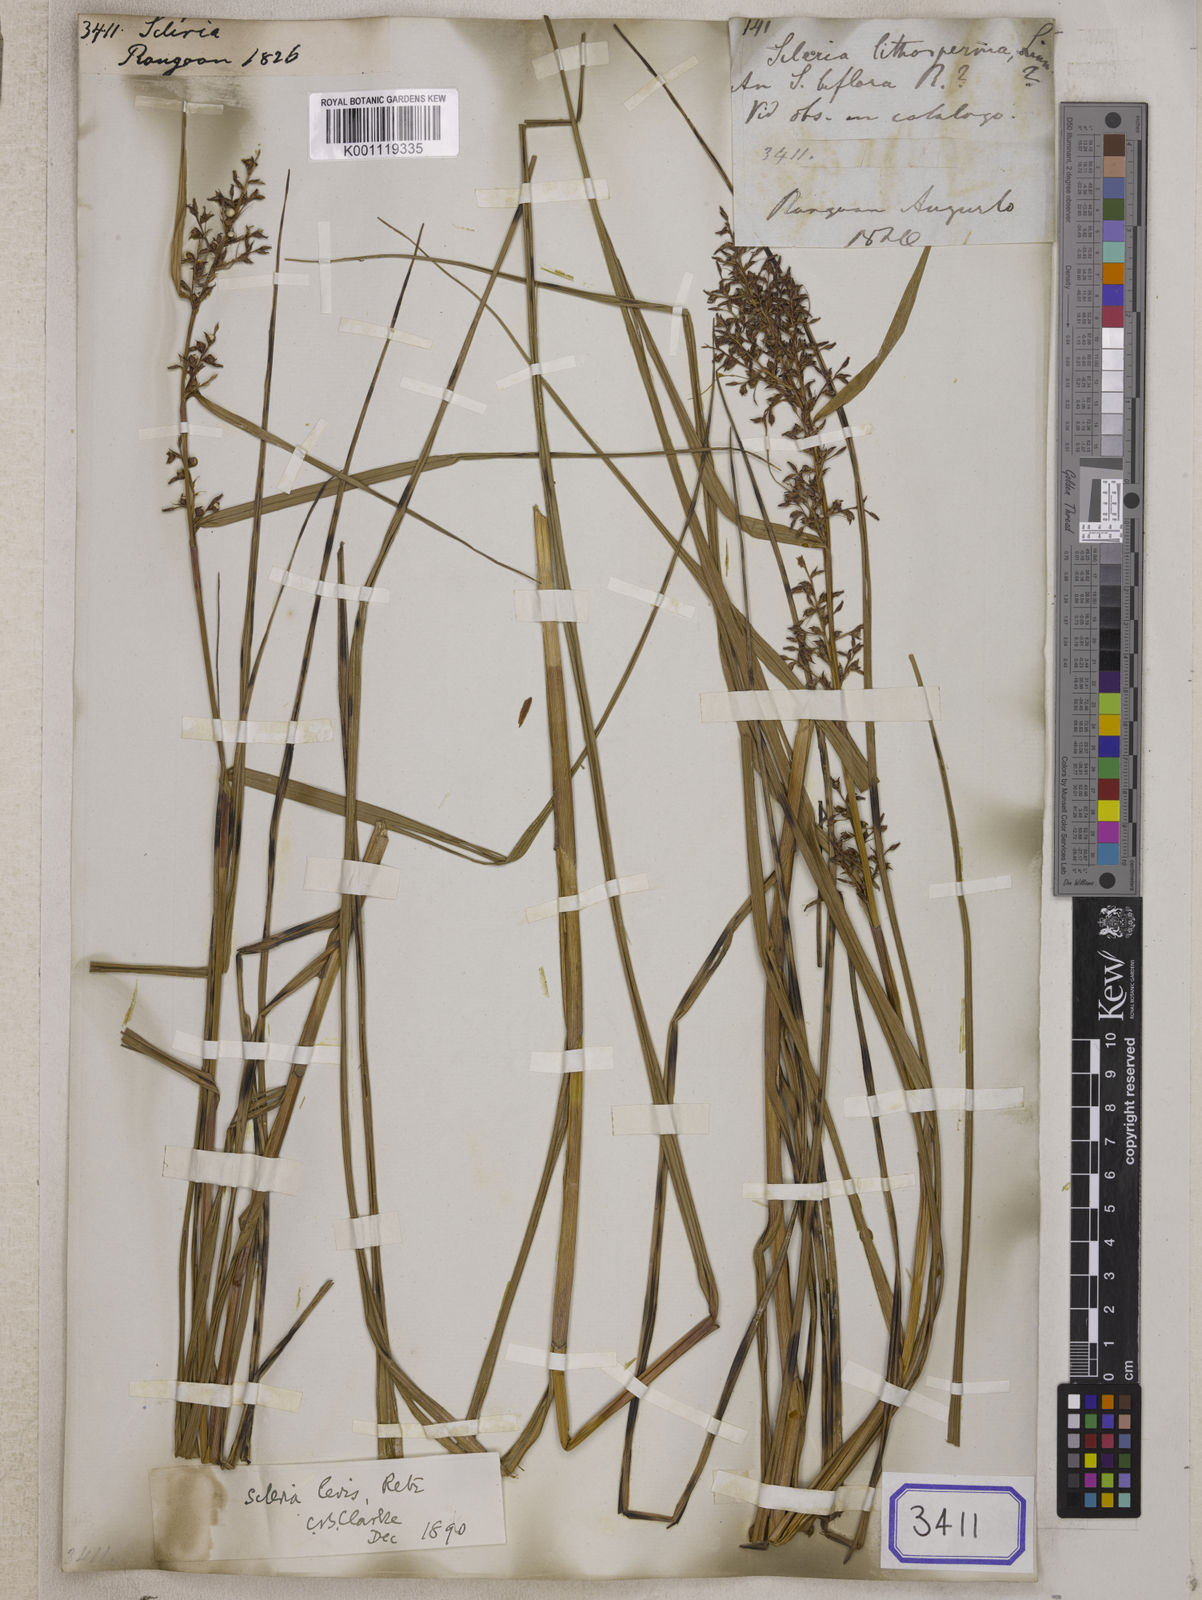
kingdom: Plantae
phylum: Tracheophyta
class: Liliopsida
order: Poales
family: Cyperaceae
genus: Scleria
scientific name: Scleria
